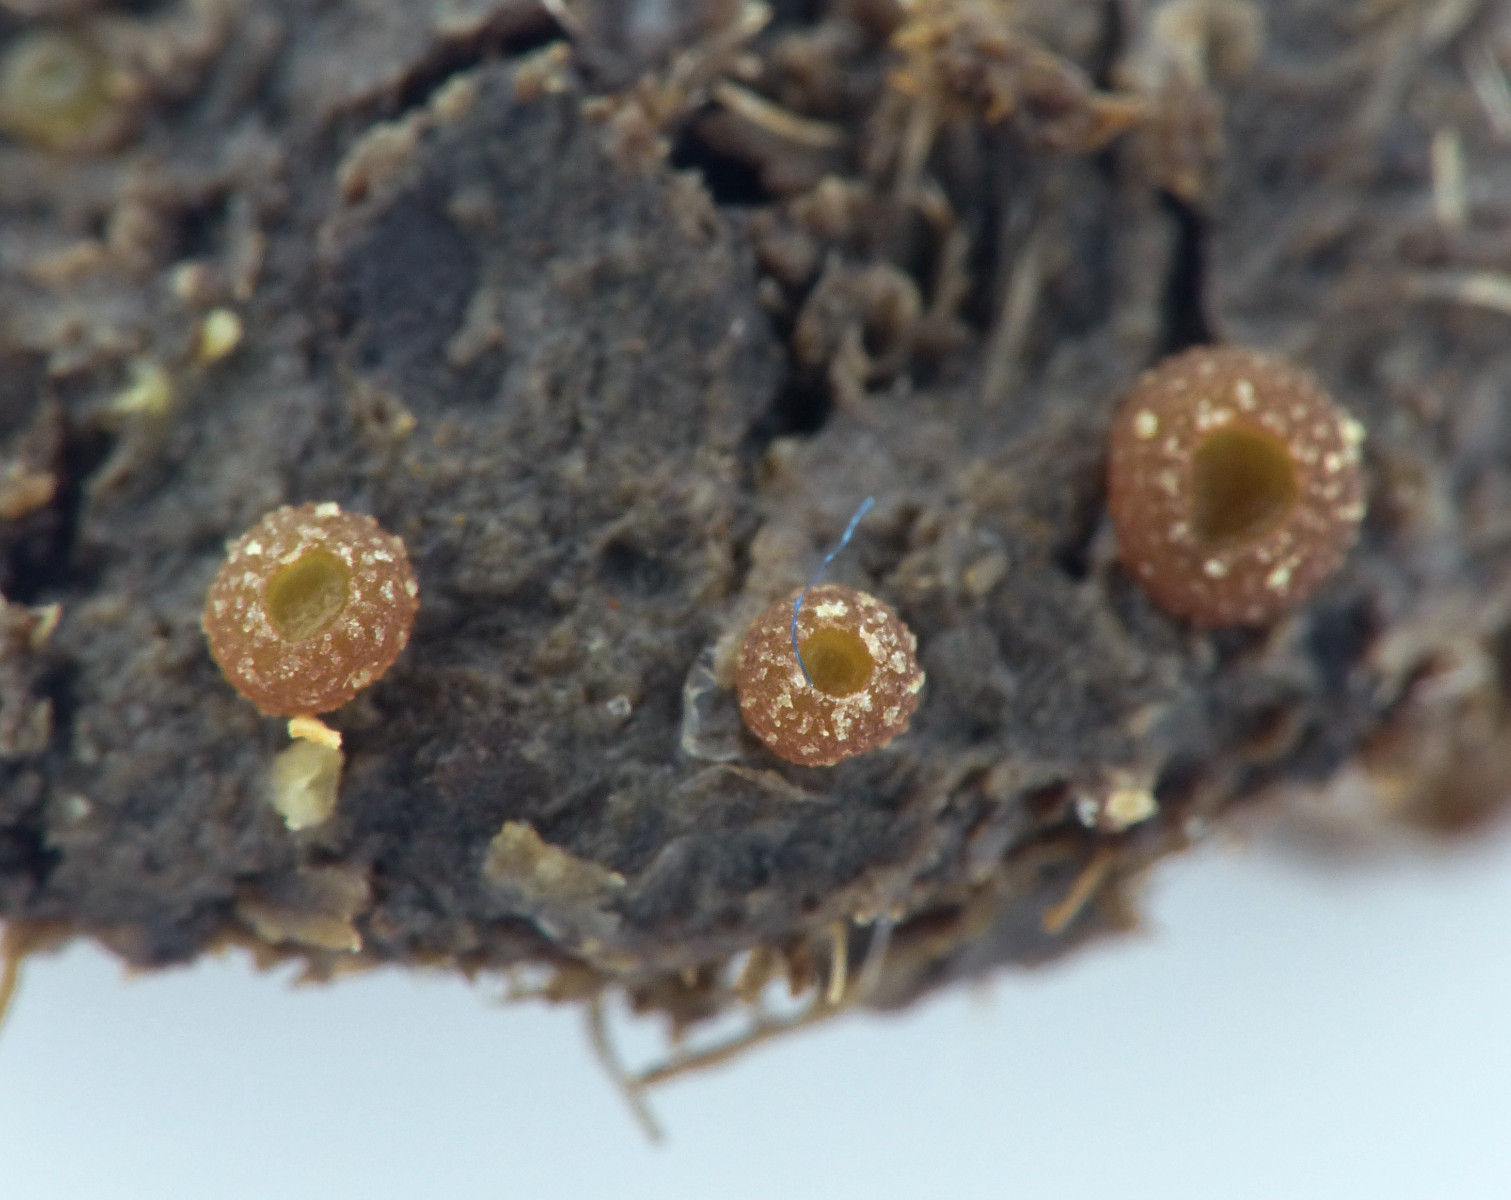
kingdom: Fungi
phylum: Ascomycota
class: Pezizomycetes
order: Pezizales
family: Ascobolaceae
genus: Ascobolus
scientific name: Ascobolus
